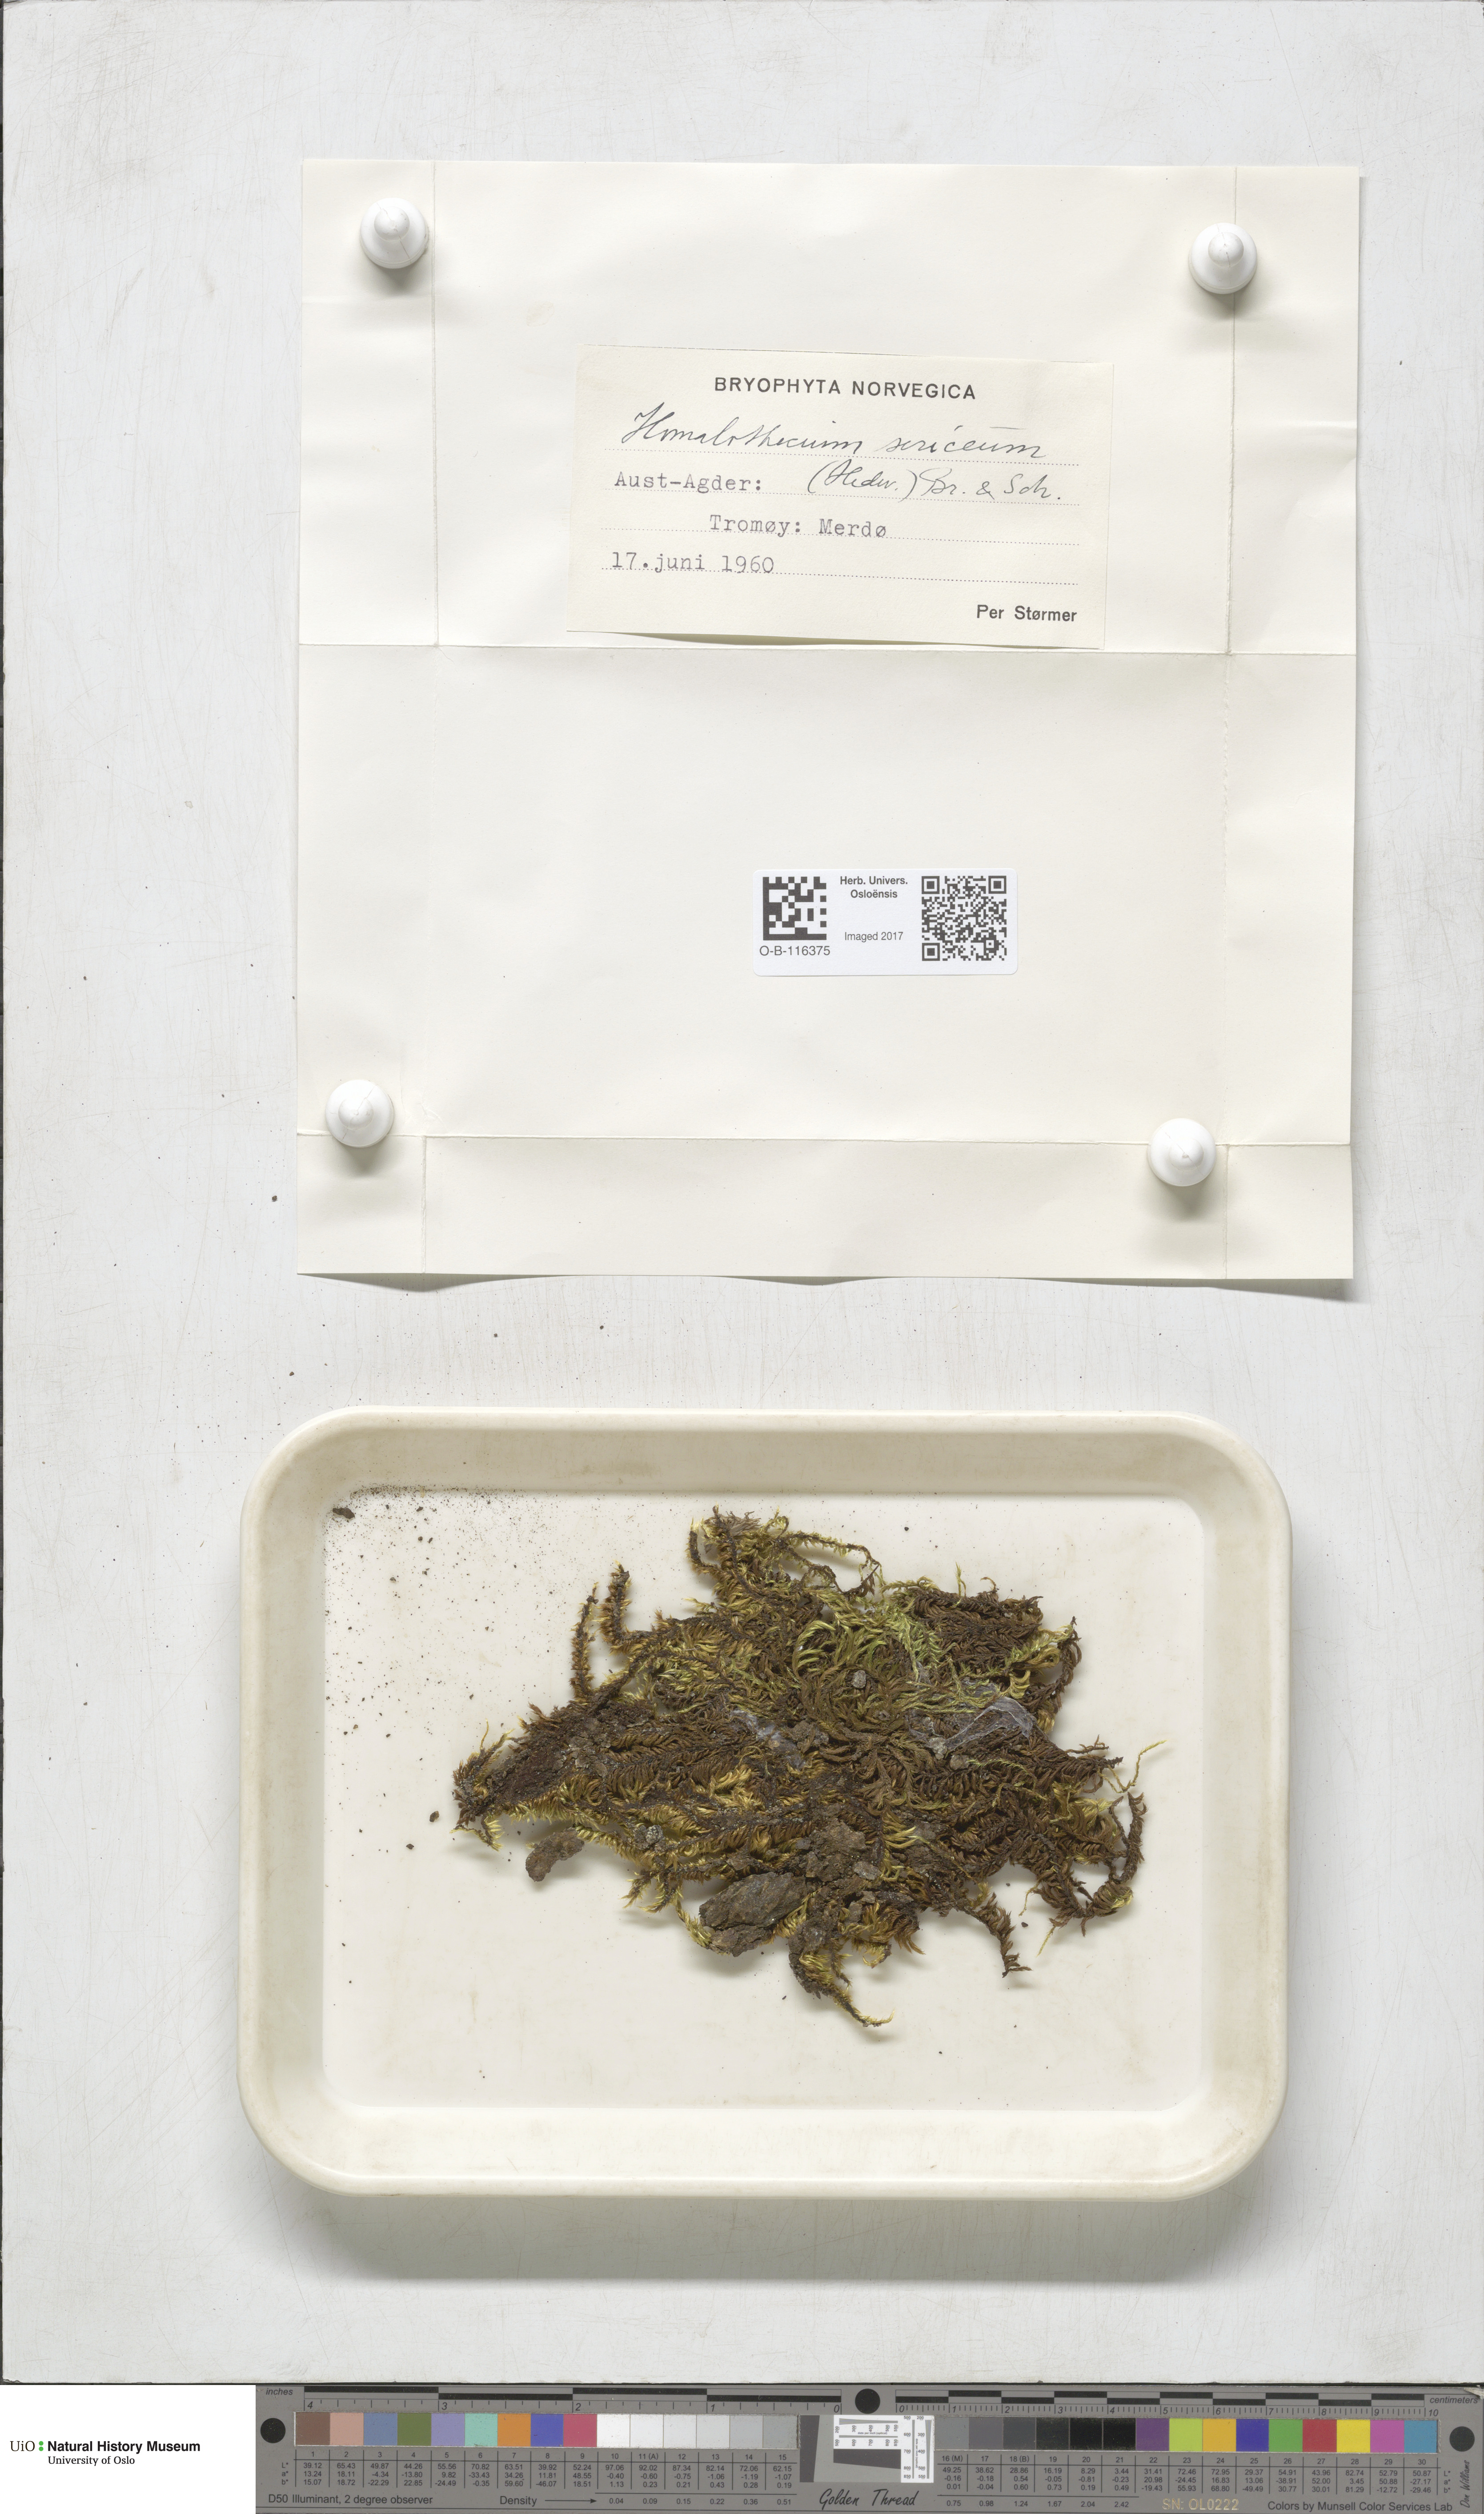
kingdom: Plantae
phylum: Bryophyta
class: Bryopsida
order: Hypnales
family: Brachytheciaceae
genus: Homalothecium
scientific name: Homalothecium sericeum
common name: Silky wall feather-moss
